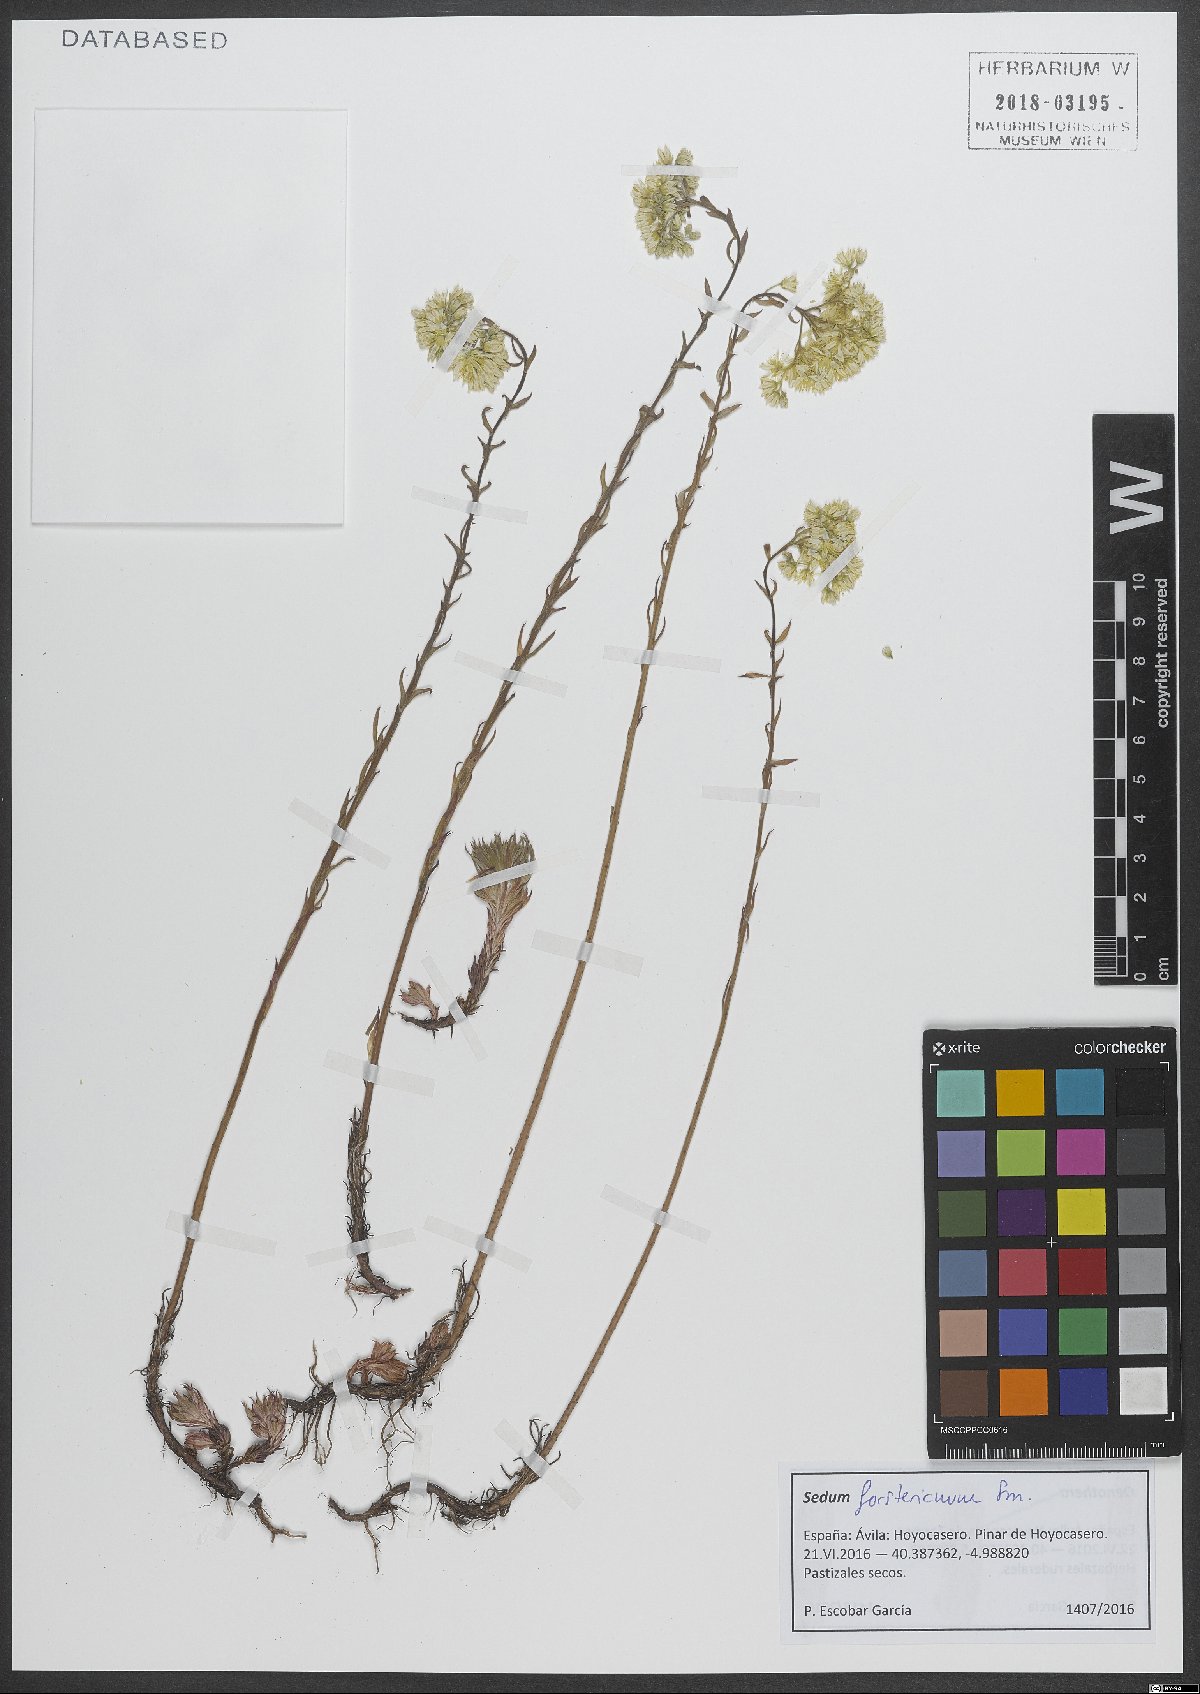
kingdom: Plantae
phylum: Tracheophyta
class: Magnoliopsida
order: Saxifragales
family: Crassulaceae
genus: Petrosedum
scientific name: Petrosedum forsterianum
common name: Forster's stonecrop
